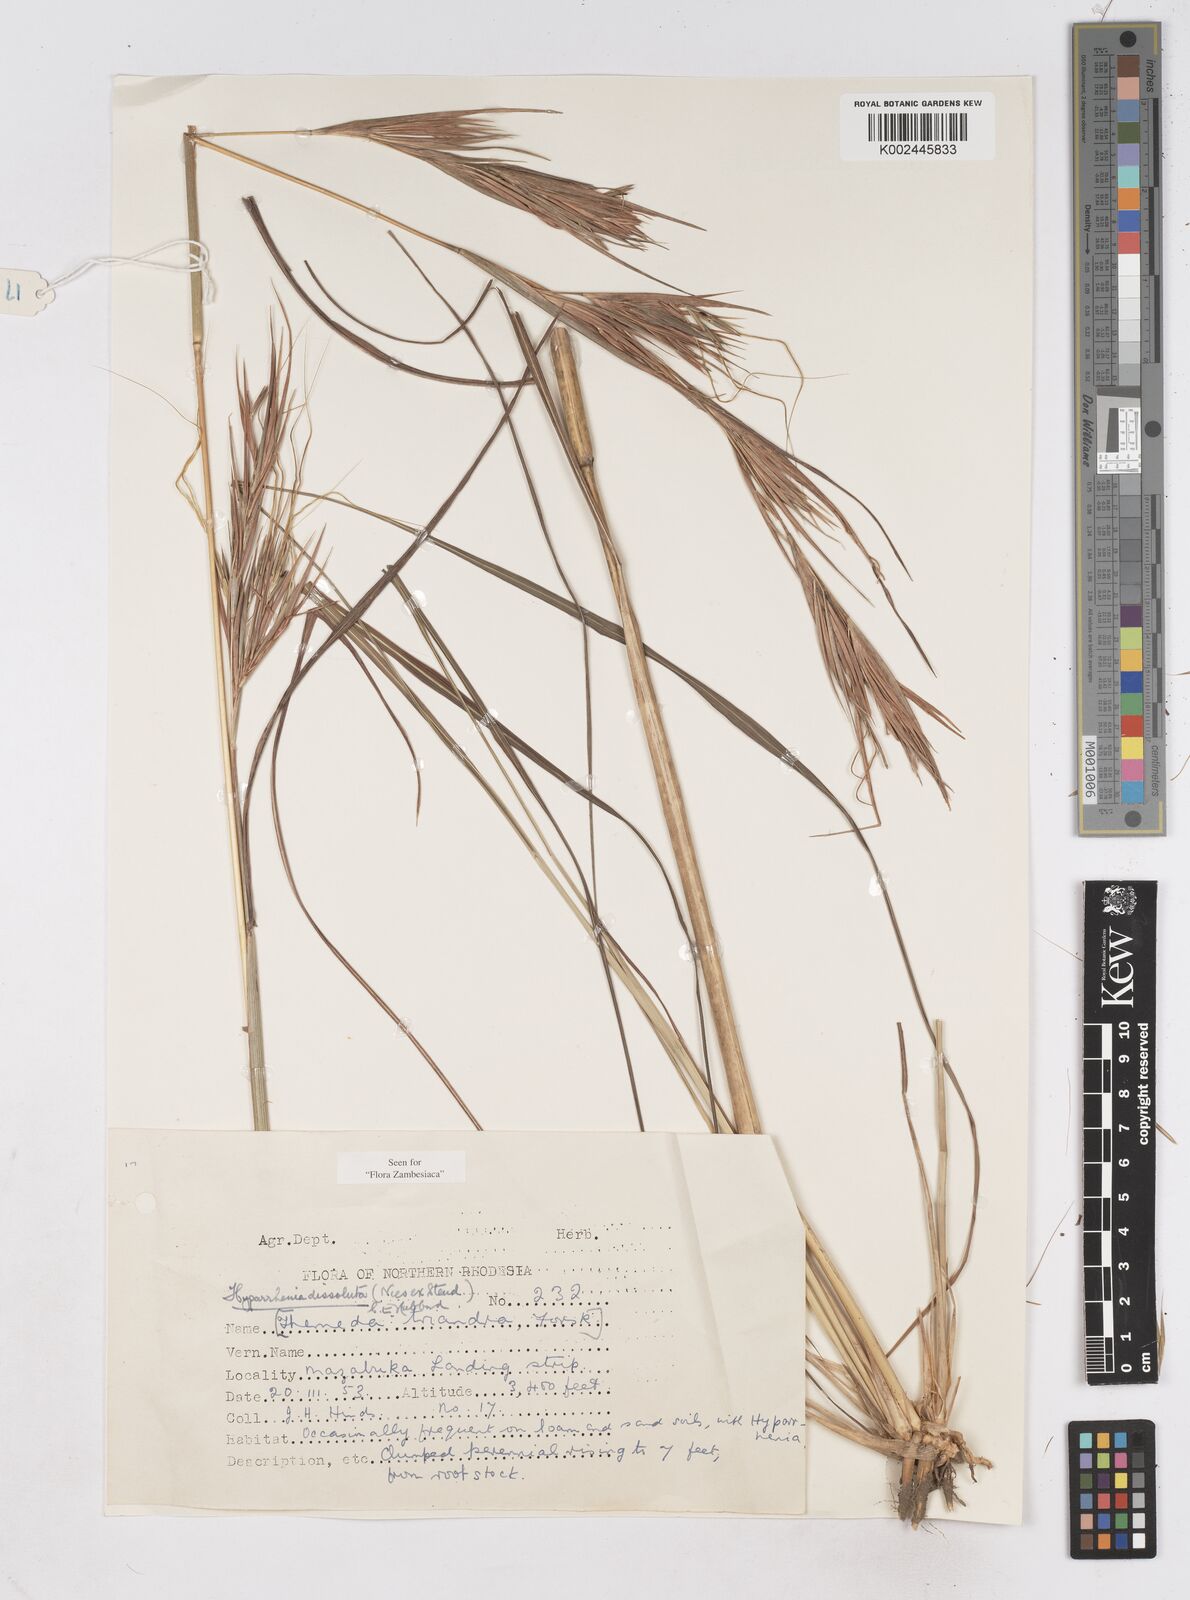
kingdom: Plantae
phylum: Tracheophyta
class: Liliopsida
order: Poales
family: Poaceae
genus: Hyperthelia
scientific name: Hyperthelia dissoluta
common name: Yellow thatching grass
